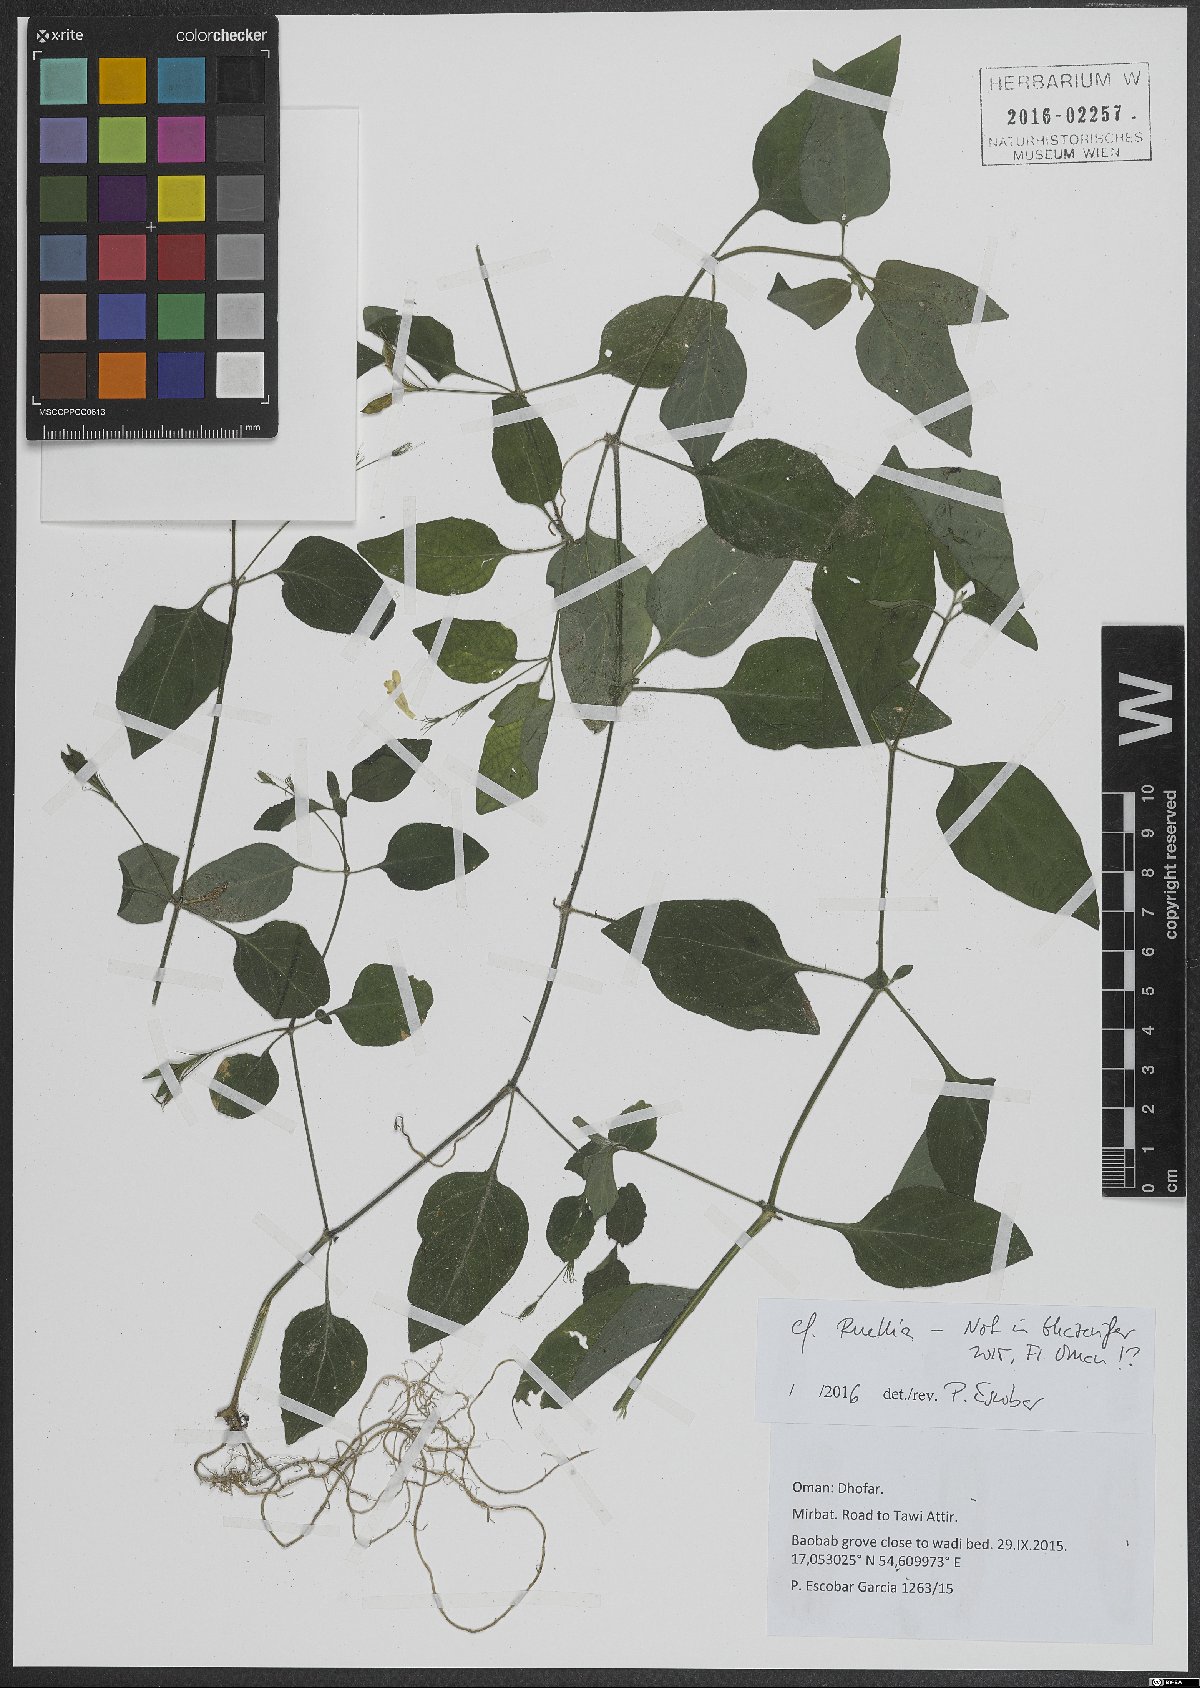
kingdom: Plantae
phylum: Tracheophyta
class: Magnoliopsida
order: Lamiales
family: Acanthaceae
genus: Ruellia
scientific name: Ruellia
